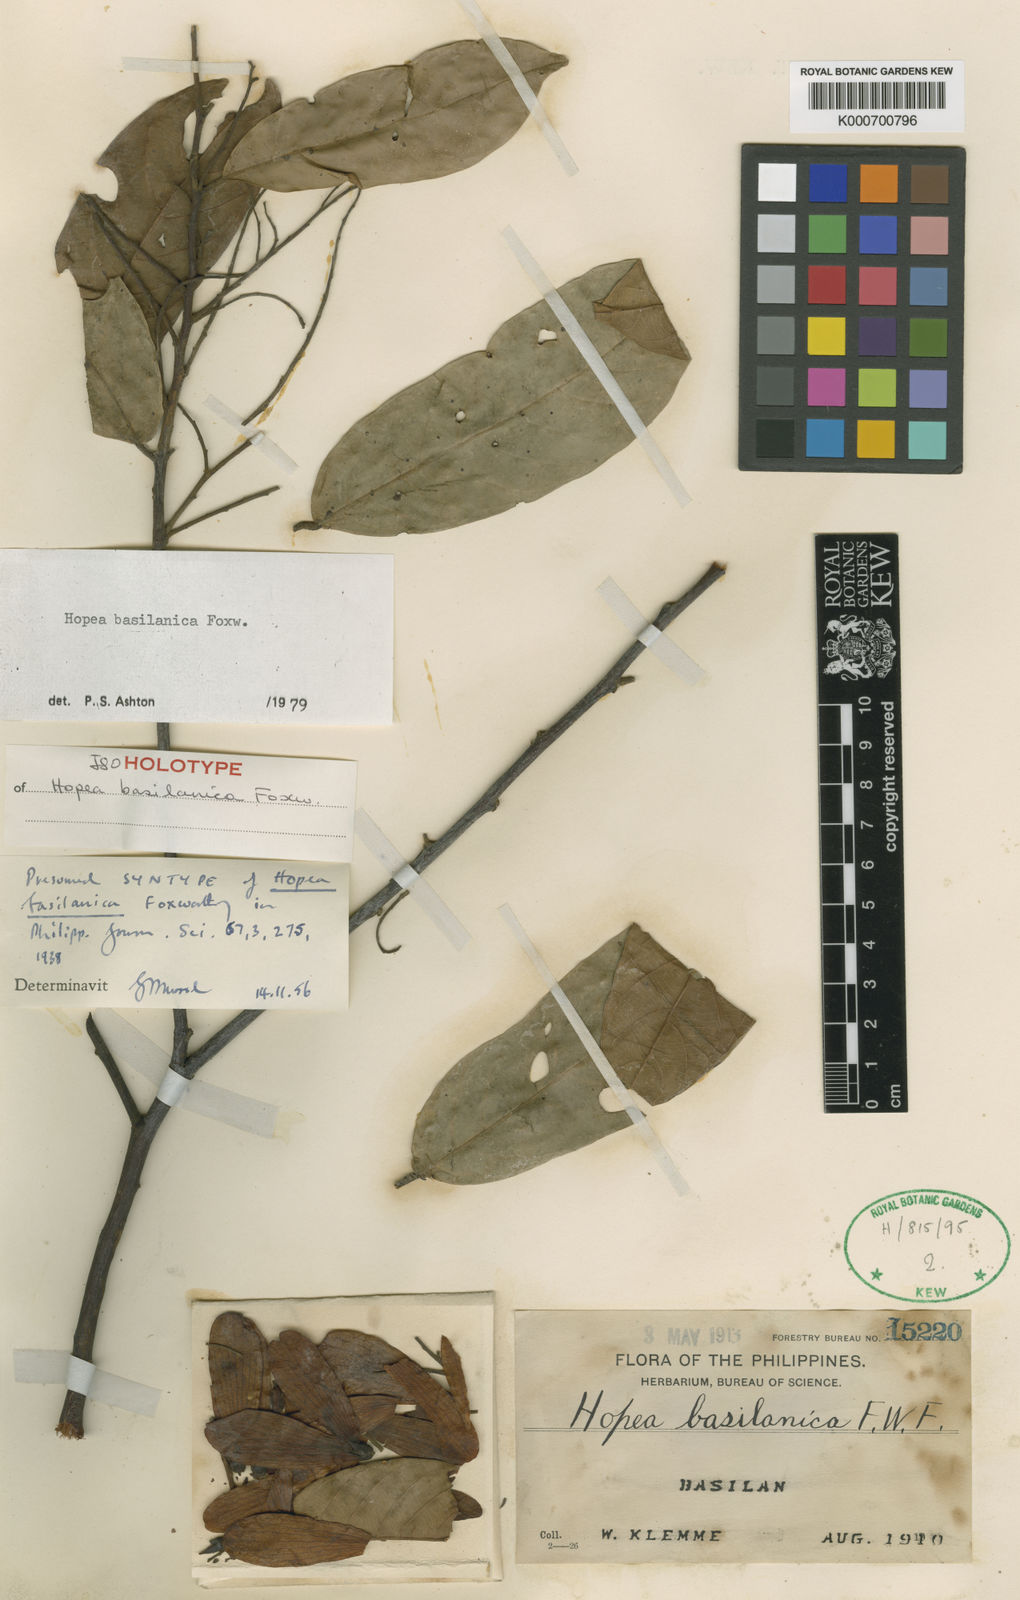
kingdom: Plantae
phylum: Tracheophyta
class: Magnoliopsida
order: Malvales
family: Dipterocarpaceae
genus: Hopea
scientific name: Hopea basilanica
